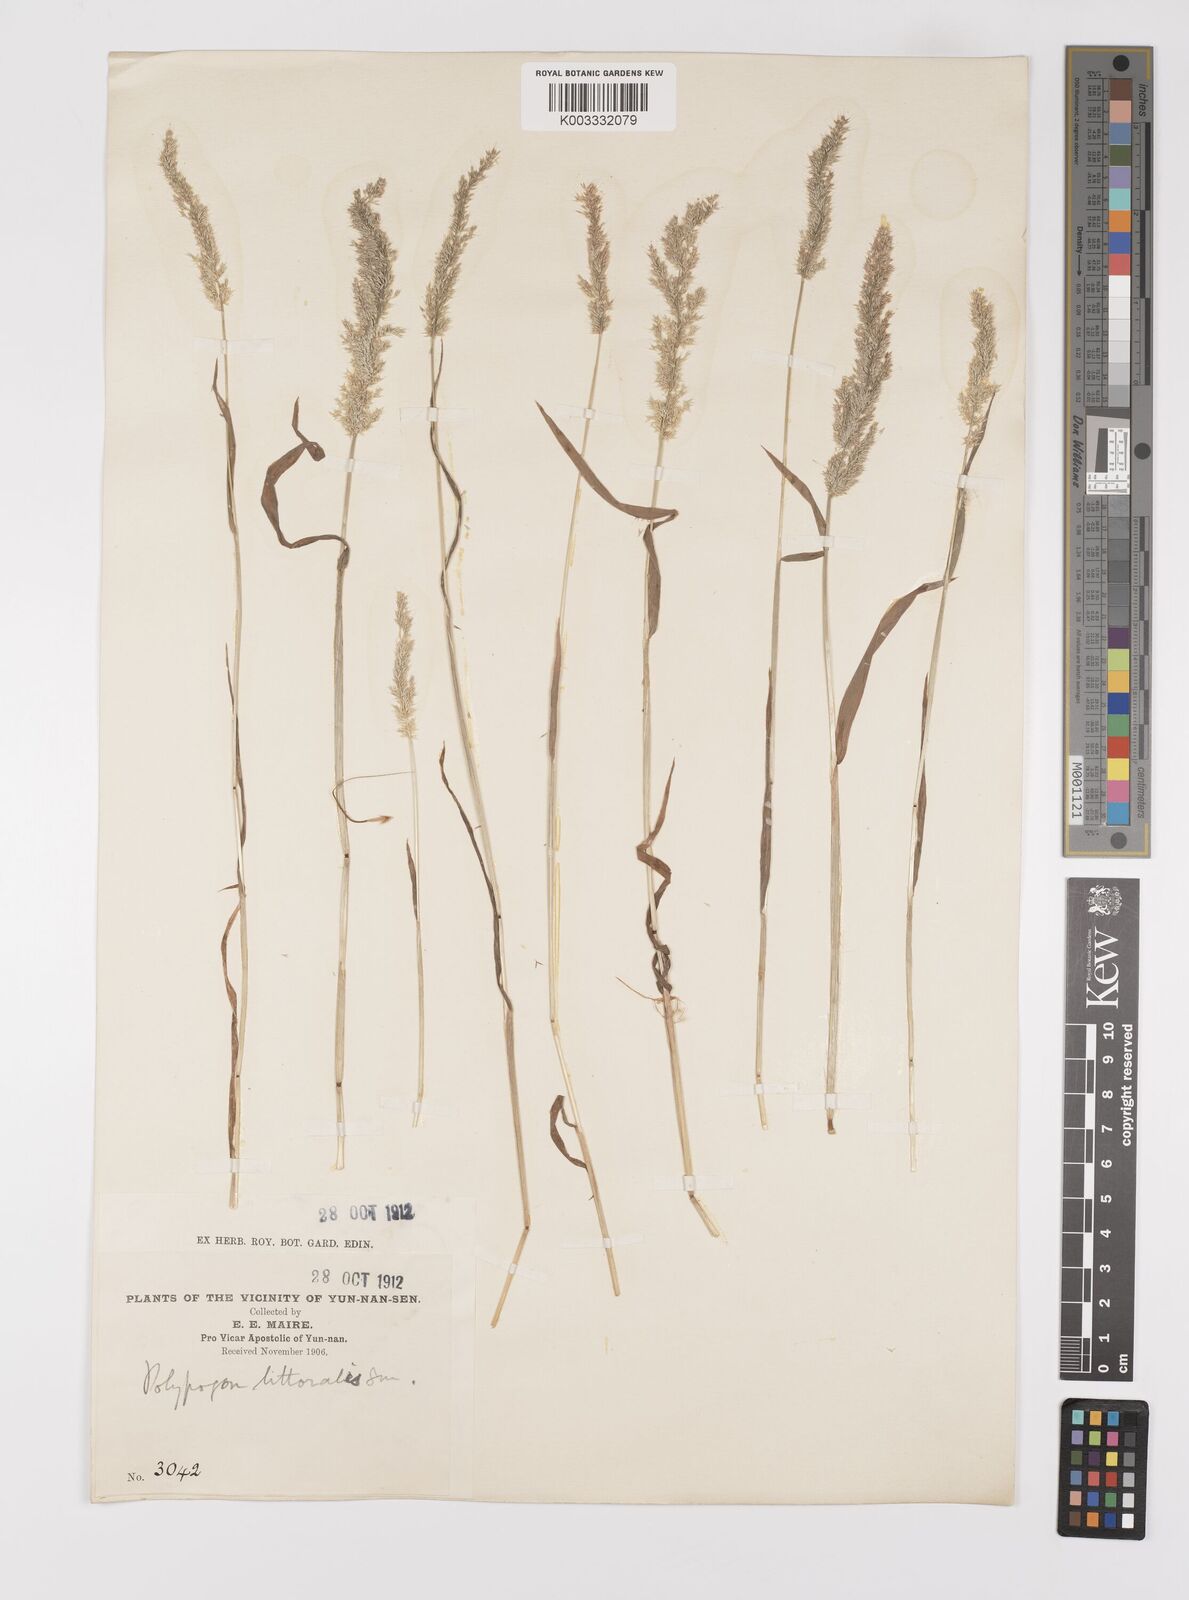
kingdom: Plantae
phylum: Tracheophyta
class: Liliopsida
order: Poales
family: Poaceae
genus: Polypogon
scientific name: Polypogon fugax
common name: Asia minor bluegrass
